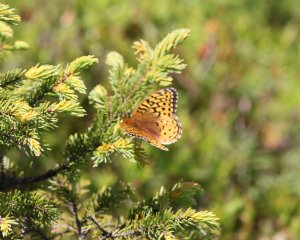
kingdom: Animalia
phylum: Arthropoda
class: Insecta
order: Lepidoptera
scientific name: Lepidoptera
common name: Butterflies
